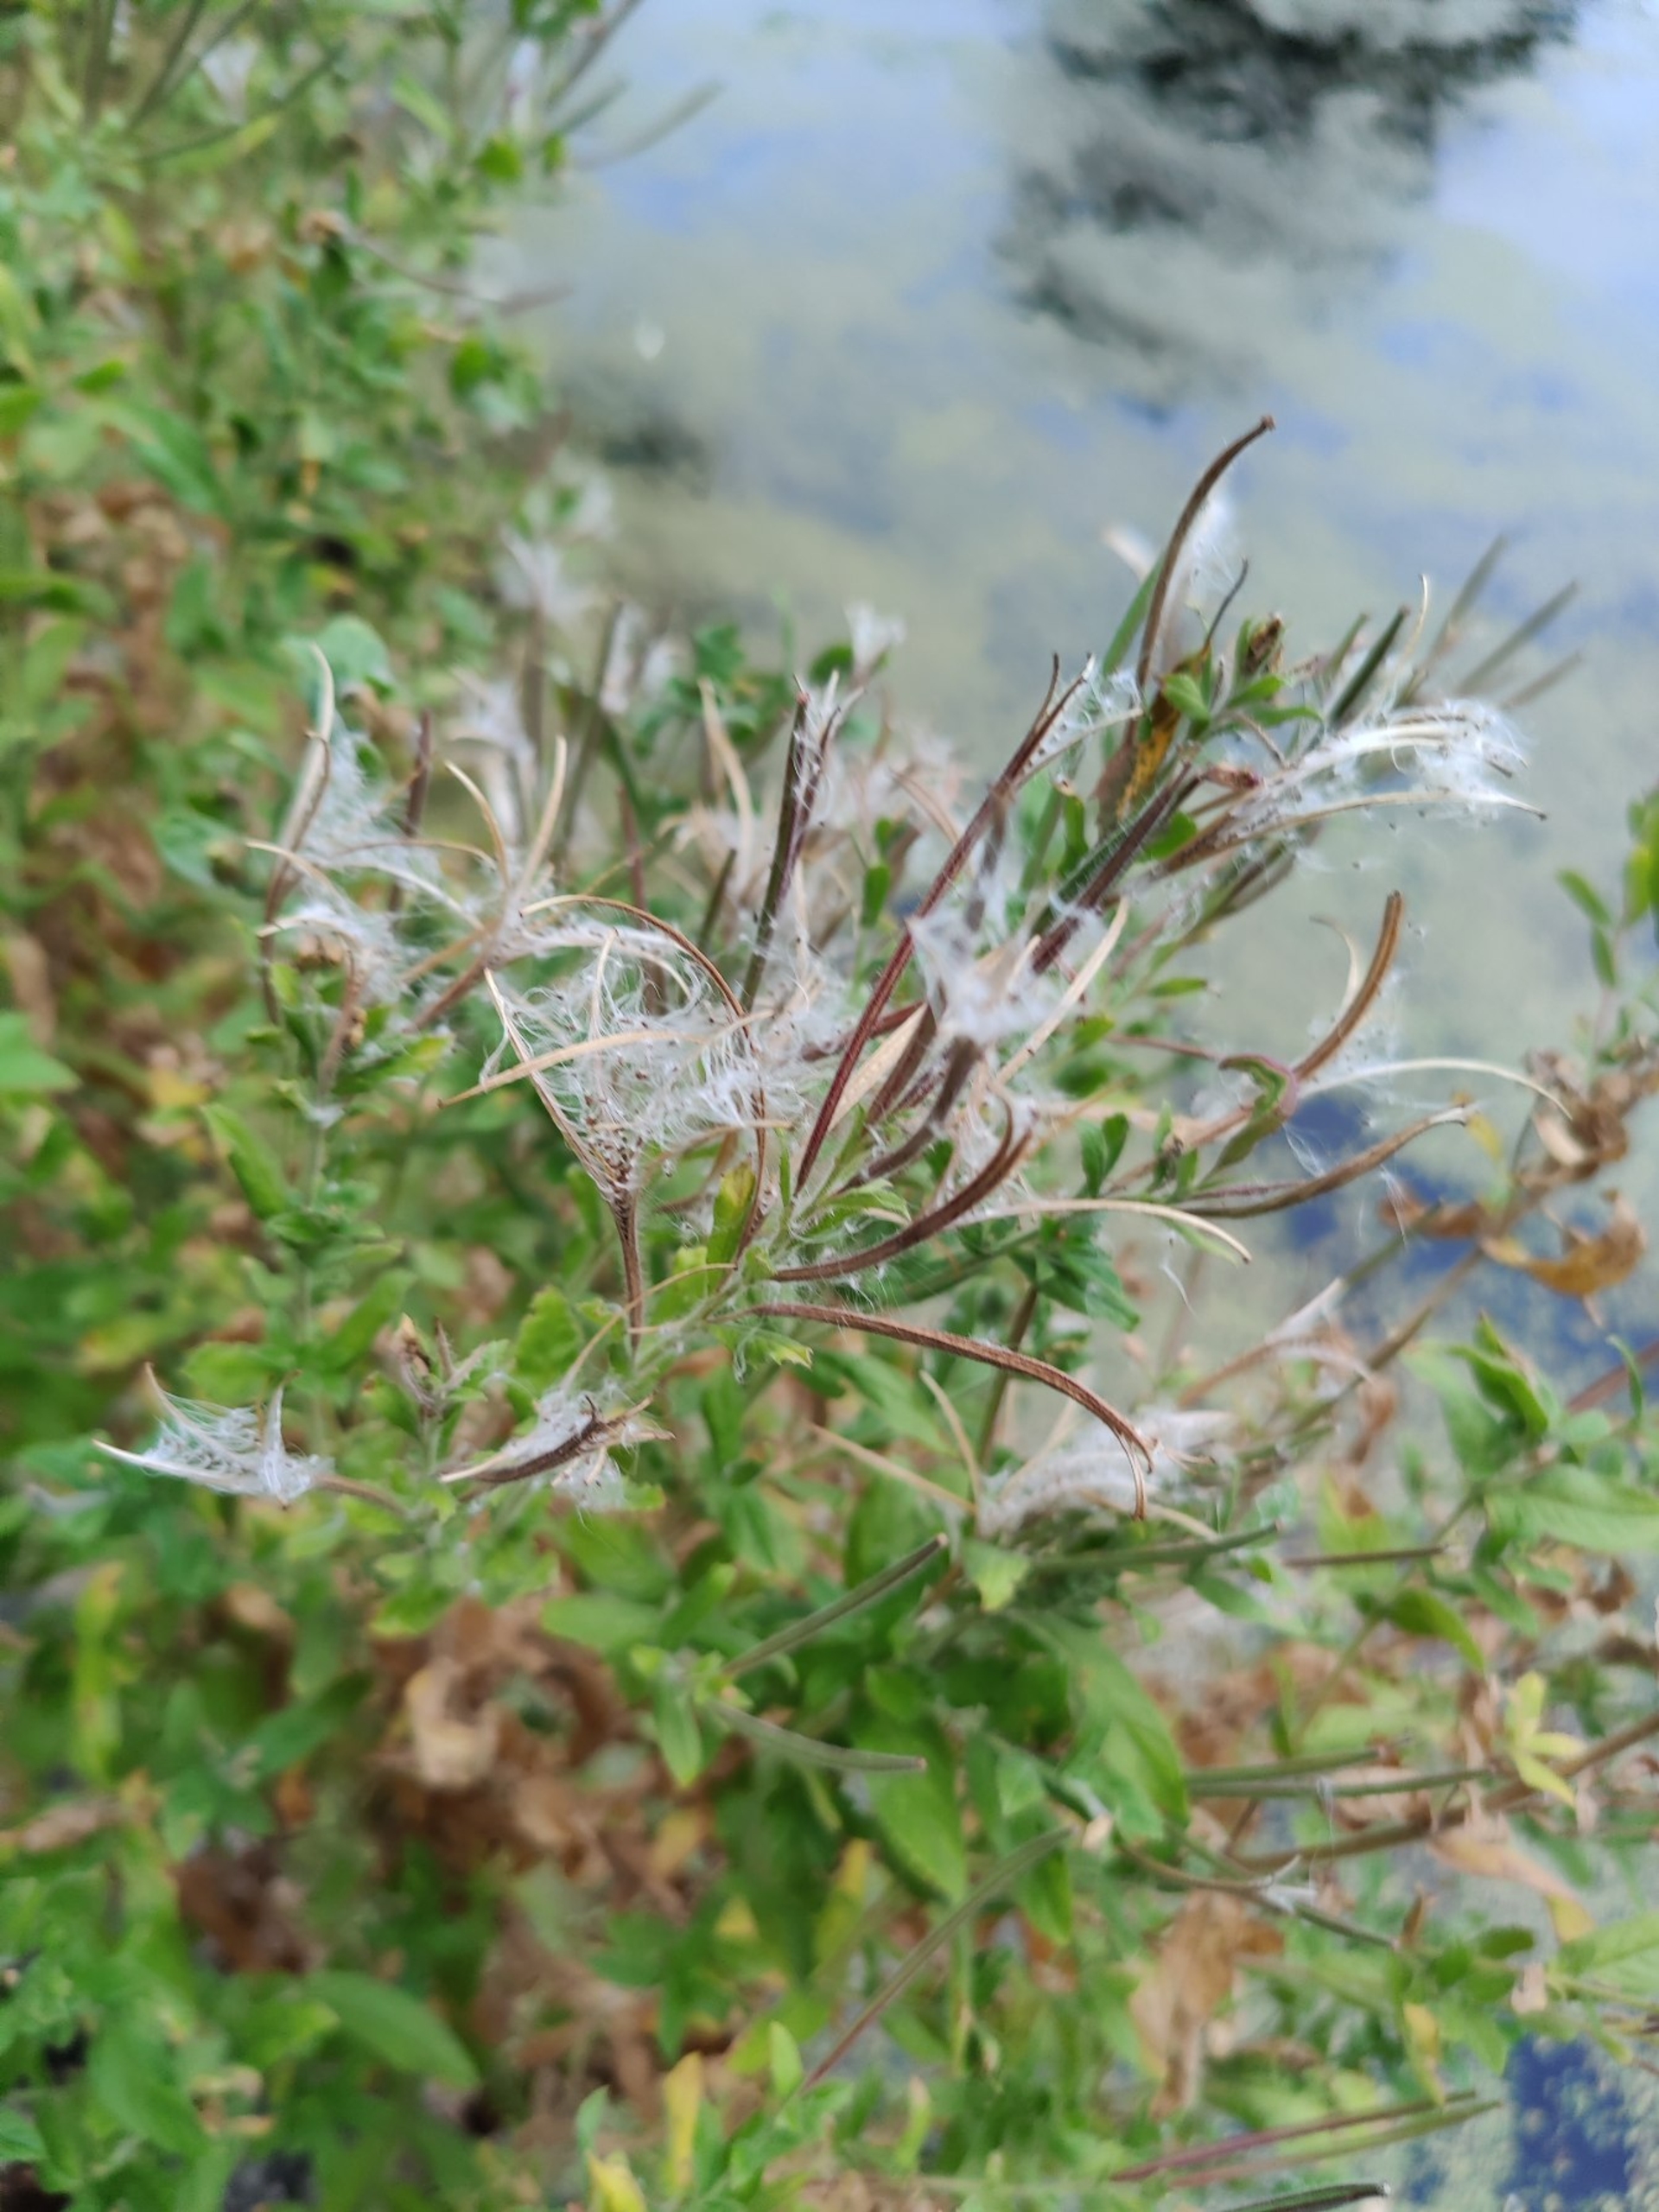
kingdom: Plantae
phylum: Tracheophyta
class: Magnoliopsida
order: Myrtales
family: Onagraceae
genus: Epilobium
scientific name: Epilobium hirsutum
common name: Lådden dueurt
